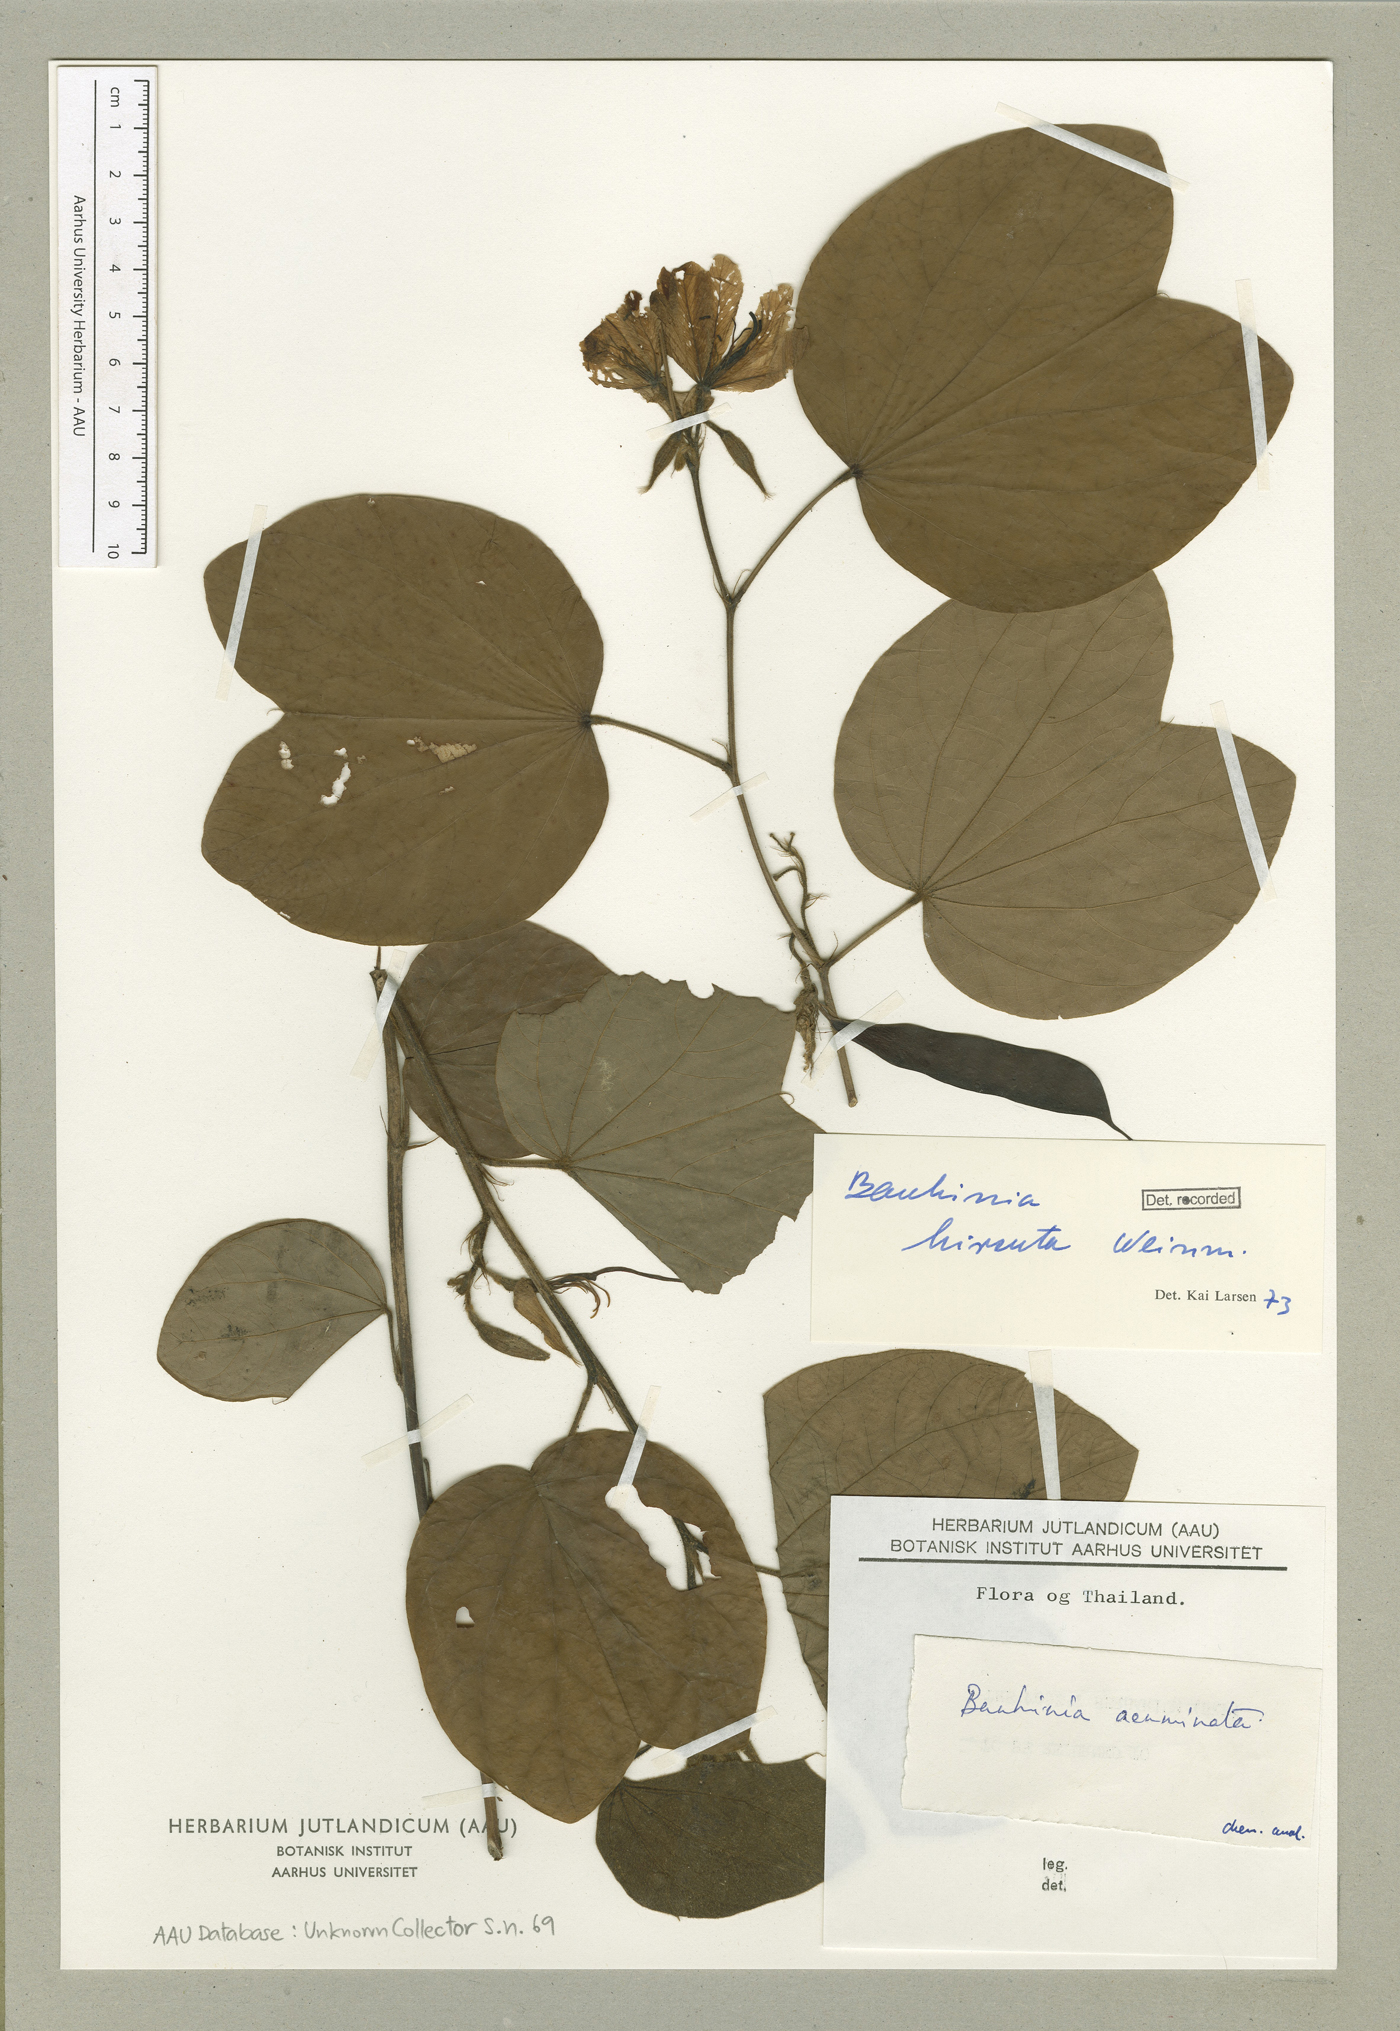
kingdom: Plantae
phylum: Tracheophyta
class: Magnoliopsida
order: Fabales
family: Fabaceae
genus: Bauhinia
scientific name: Bauhinia hirsuta
